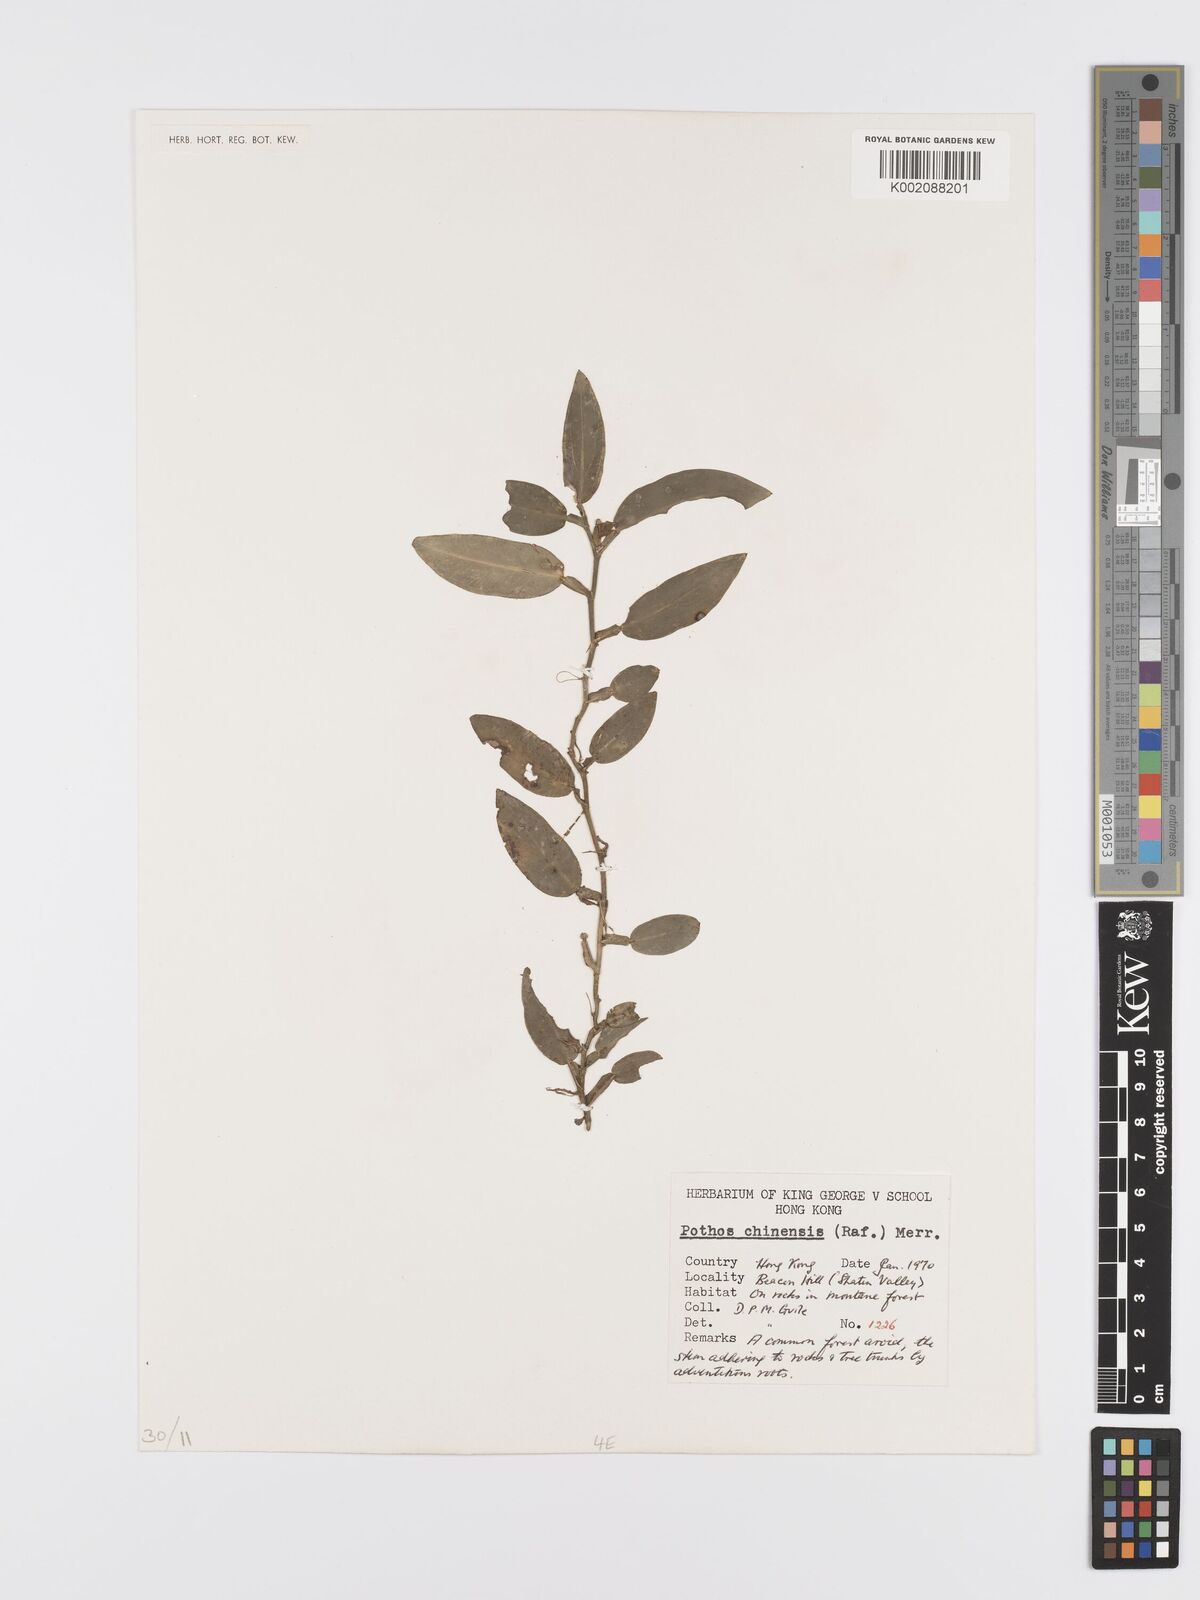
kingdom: Plantae
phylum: Tracheophyta
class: Liliopsida
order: Alismatales
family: Araceae
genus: Pothos
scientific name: Pothos chinensis
